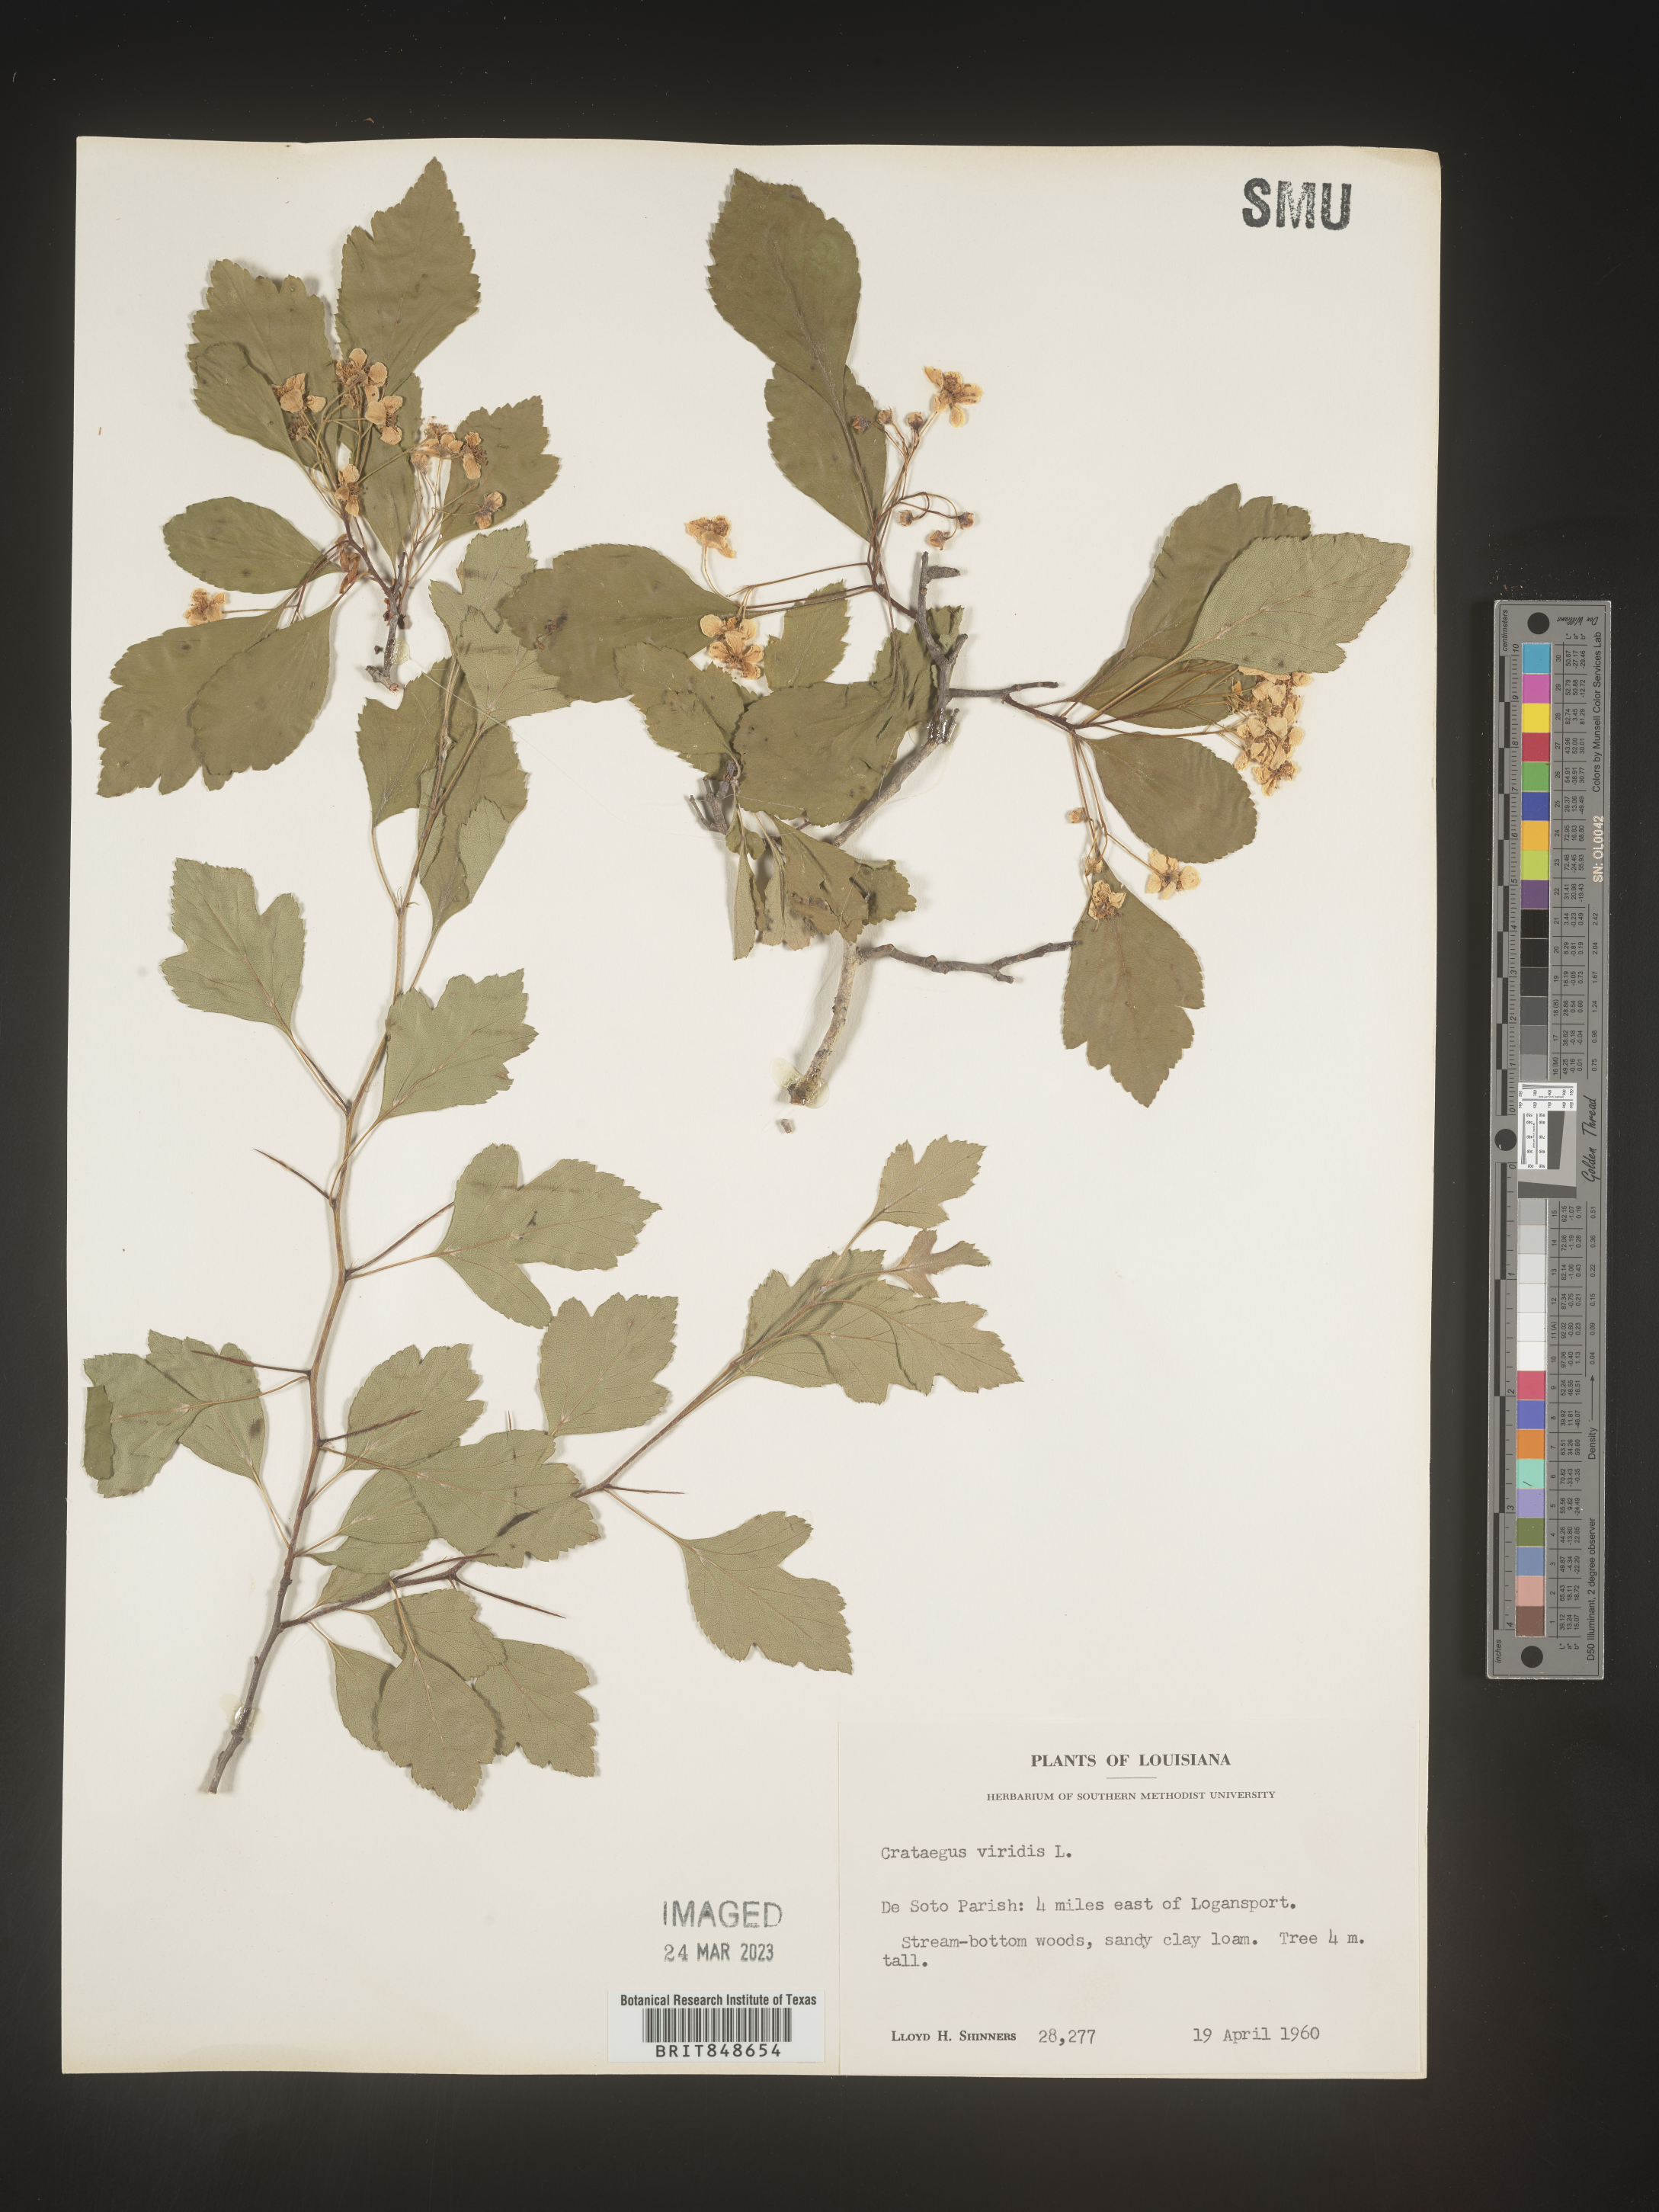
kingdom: Plantae
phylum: Tracheophyta
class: Magnoliopsida
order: Rosales
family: Rosaceae
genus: Crataegus
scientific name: Crataegus viridis
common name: Southernthorn
